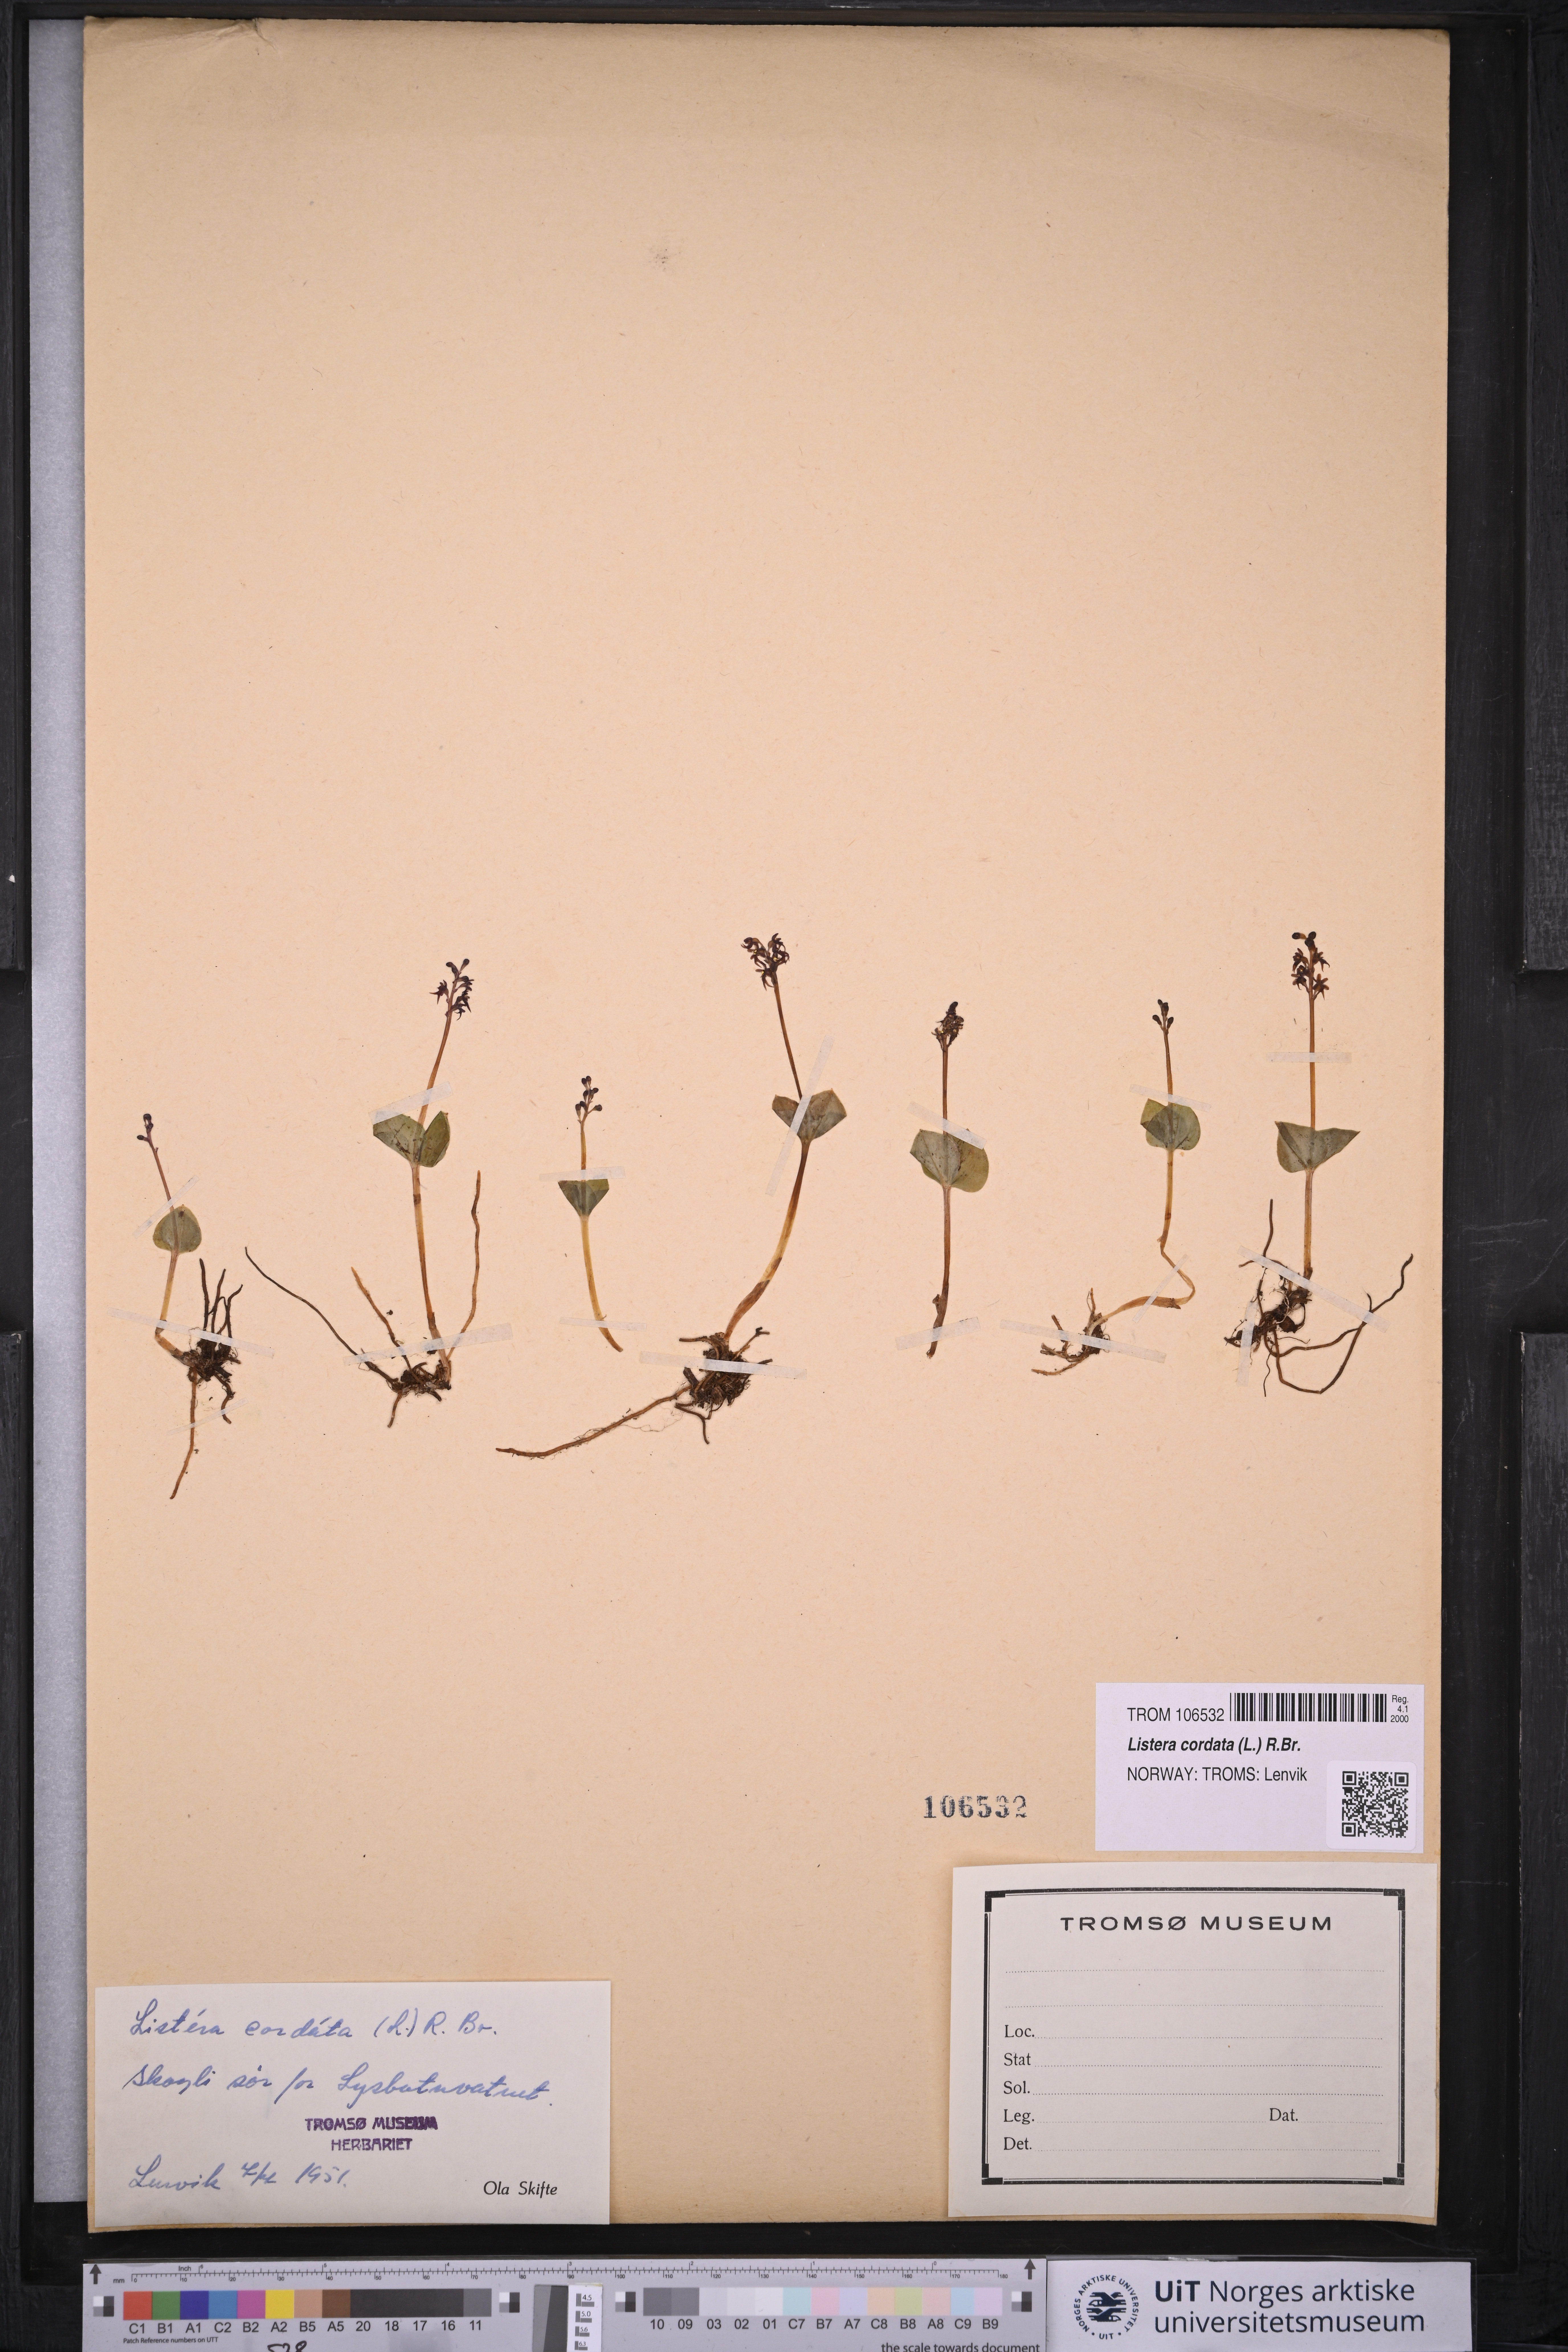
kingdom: Plantae
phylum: Tracheophyta
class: Liliopsida
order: Asparagales
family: Orchidaceae
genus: Neottia
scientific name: Neottia cordata
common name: Lesser twayblade
